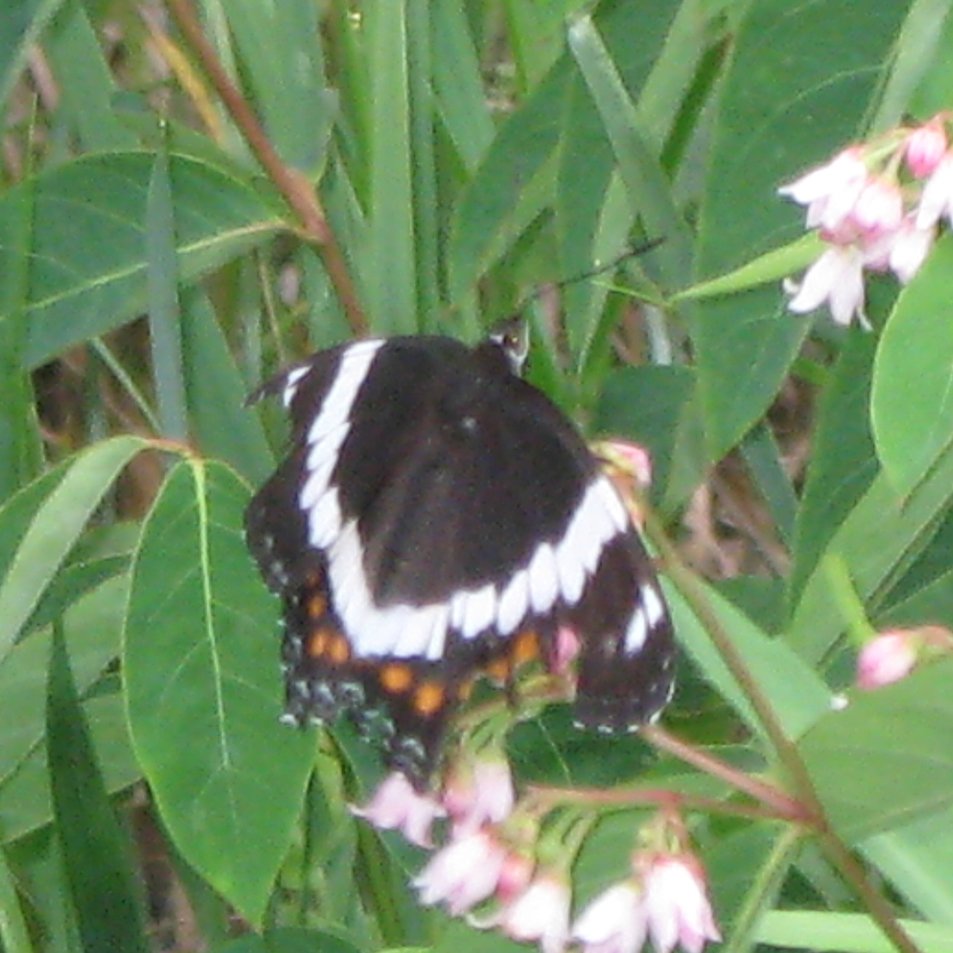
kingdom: Animalia
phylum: Arthropoda
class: Insecta
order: Lepidoptera
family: Nymphalidae
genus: Limenitis
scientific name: Limenitis arthemis
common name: Red-spotted Admiral
